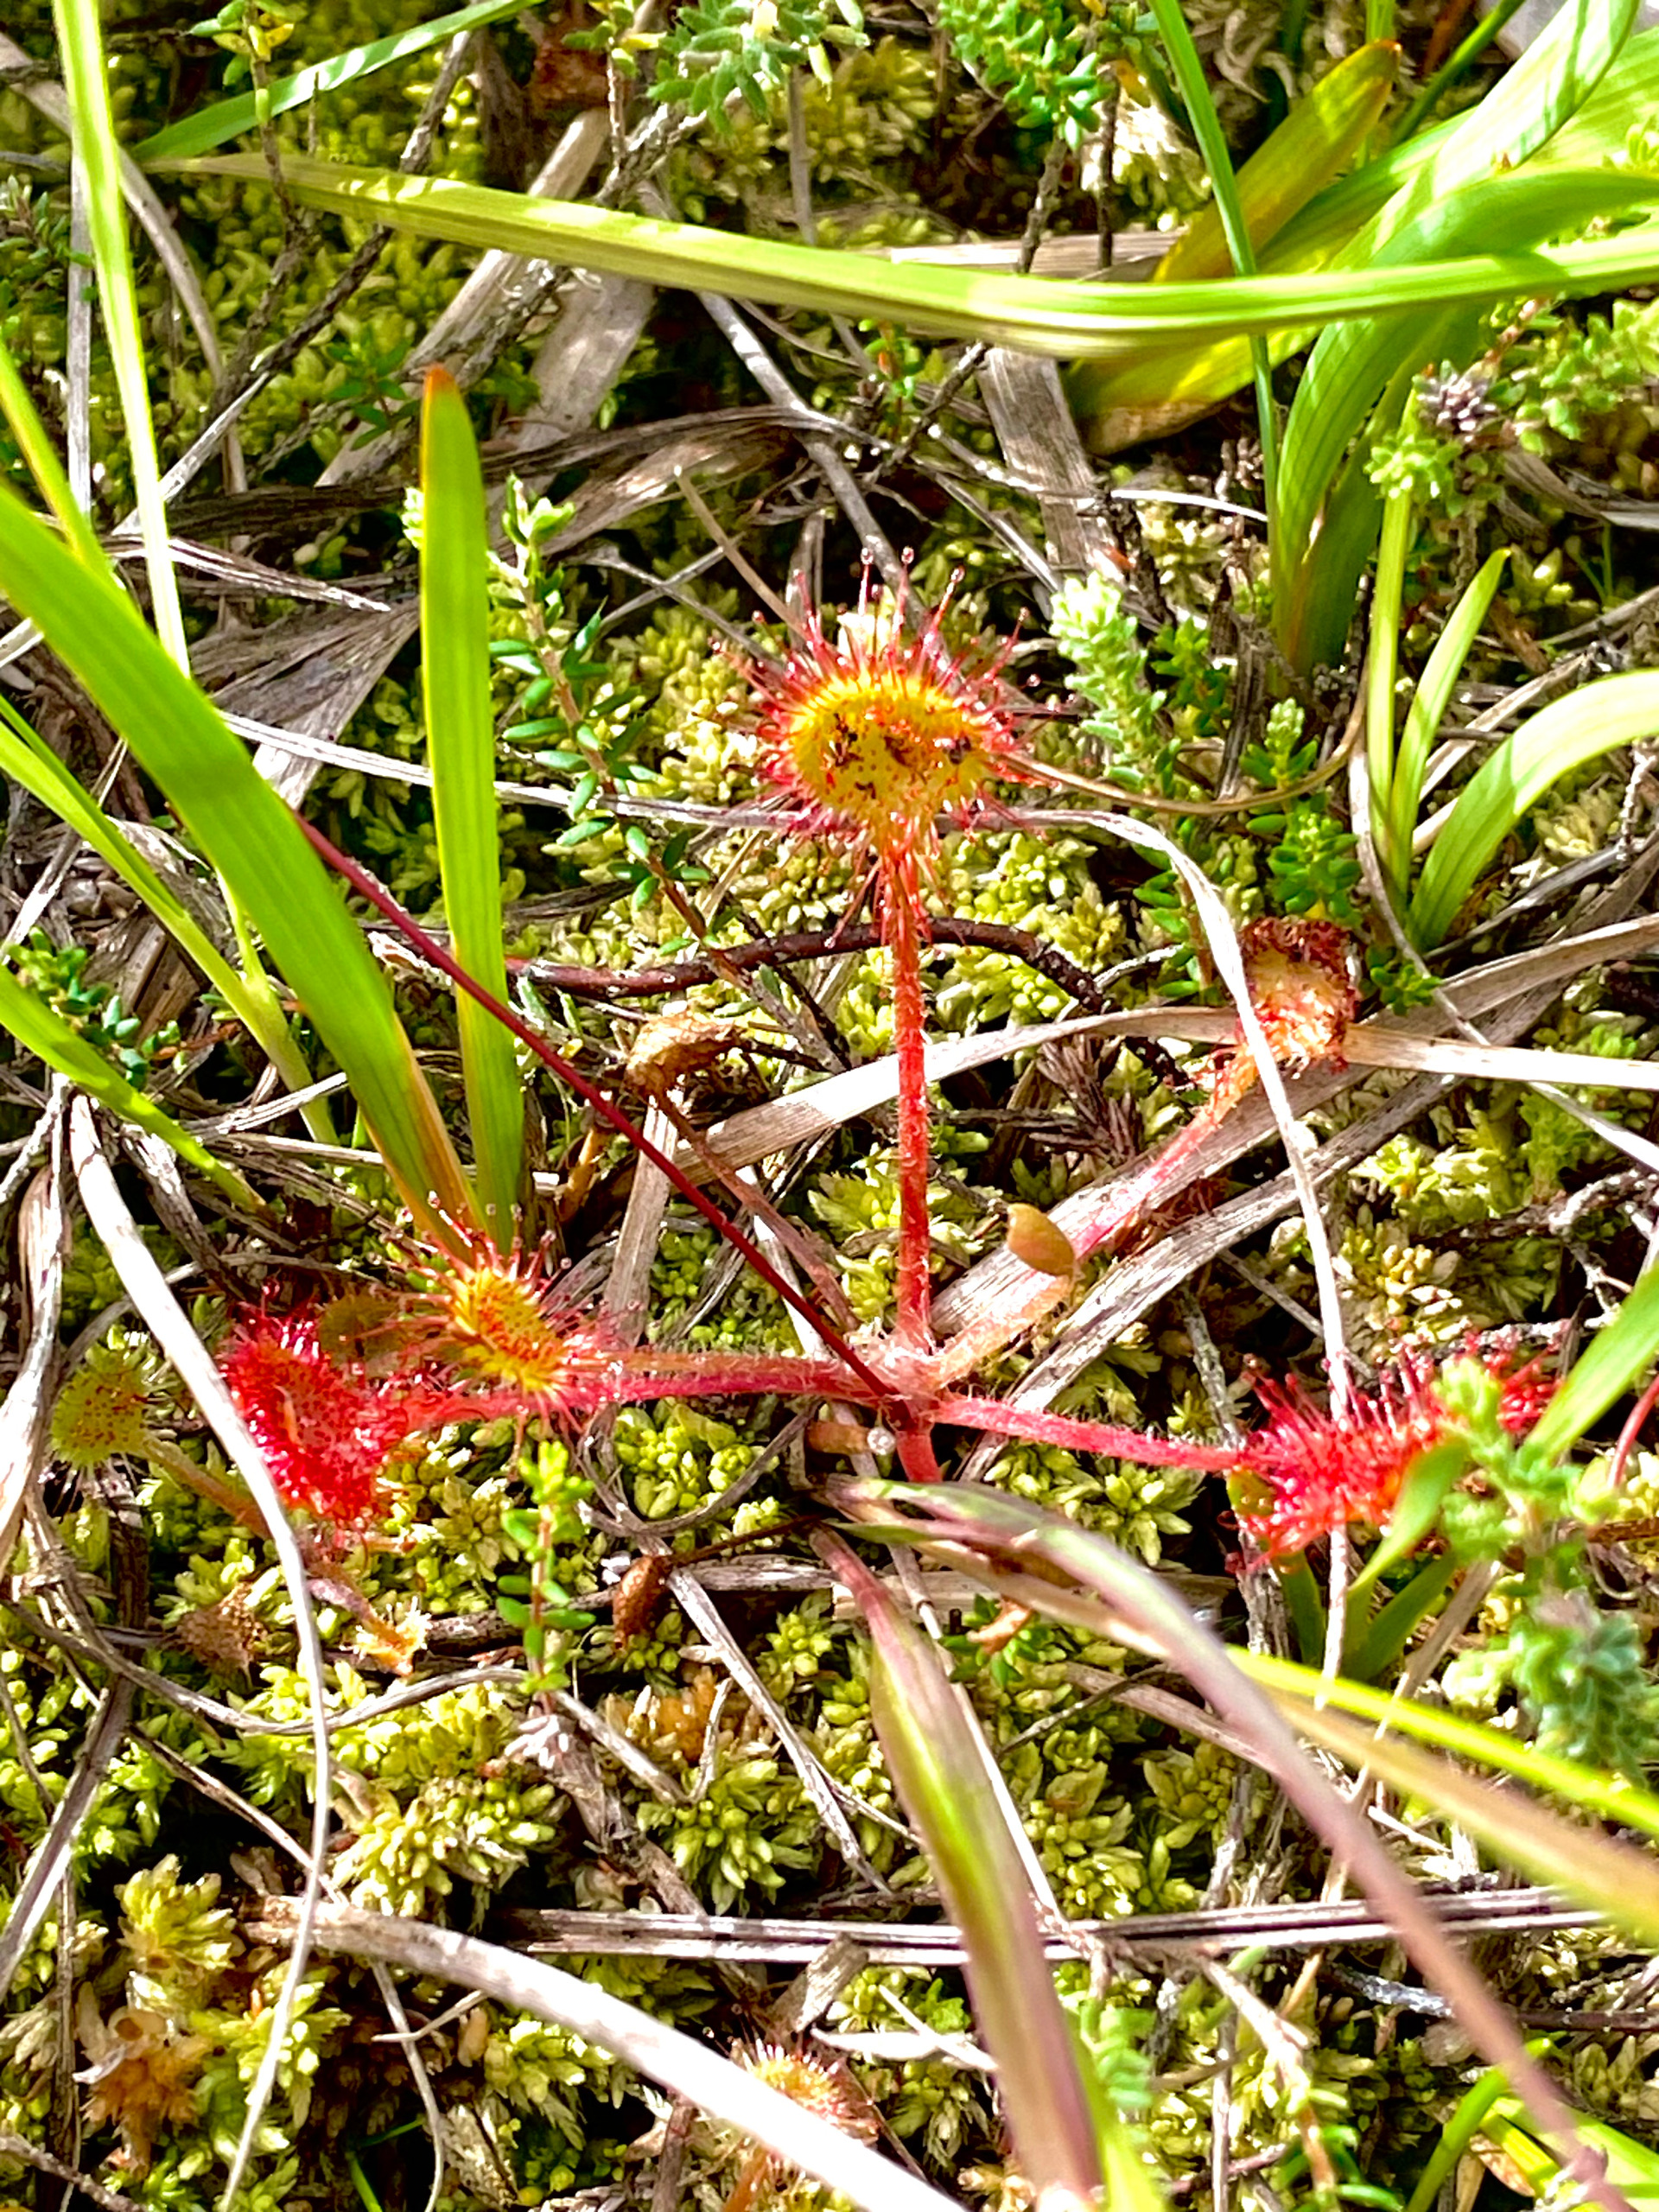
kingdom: Plantae
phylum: Tracheophyta
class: Magnoliopsida
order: Caryophyllales
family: Droseraceae
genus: Drosera
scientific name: Drosera rotundifolia
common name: Rundbladet soldug
